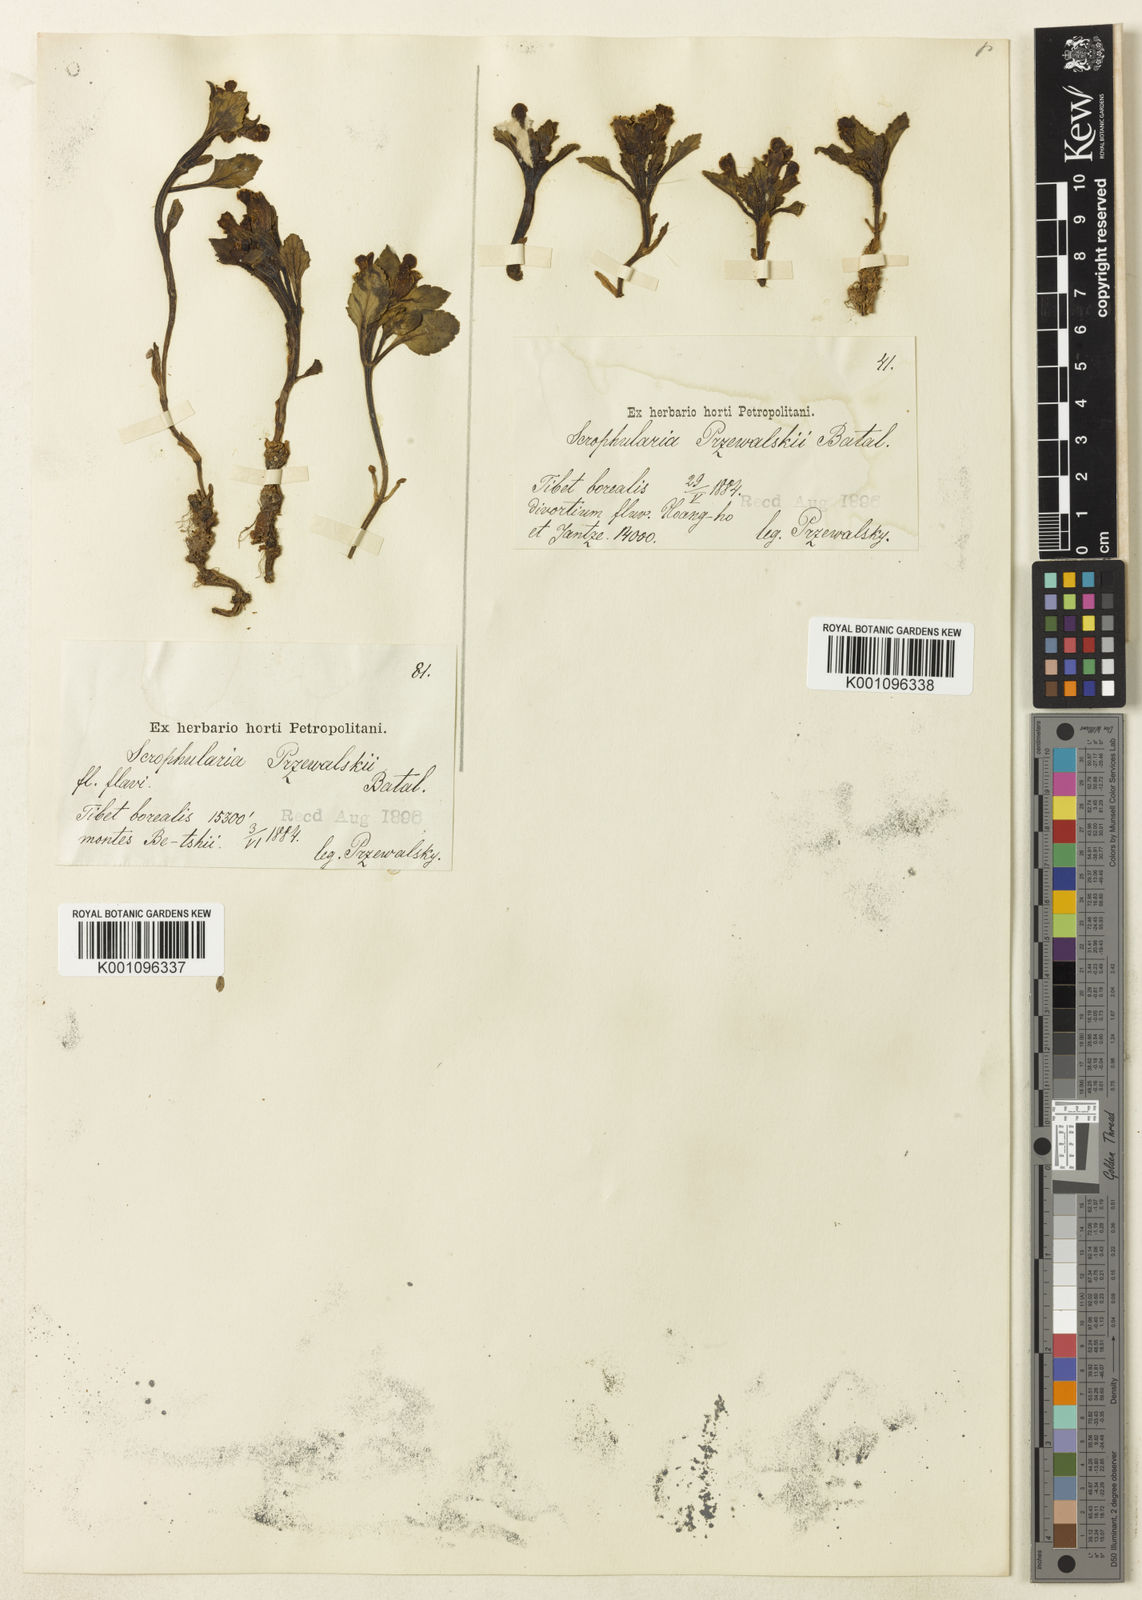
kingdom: Plantae
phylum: Tracheophyta
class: Magnoliopsida
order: Lamiales
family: Scrophulariaceae
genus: Scrophularia
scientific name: Scrophularia przewalskii
